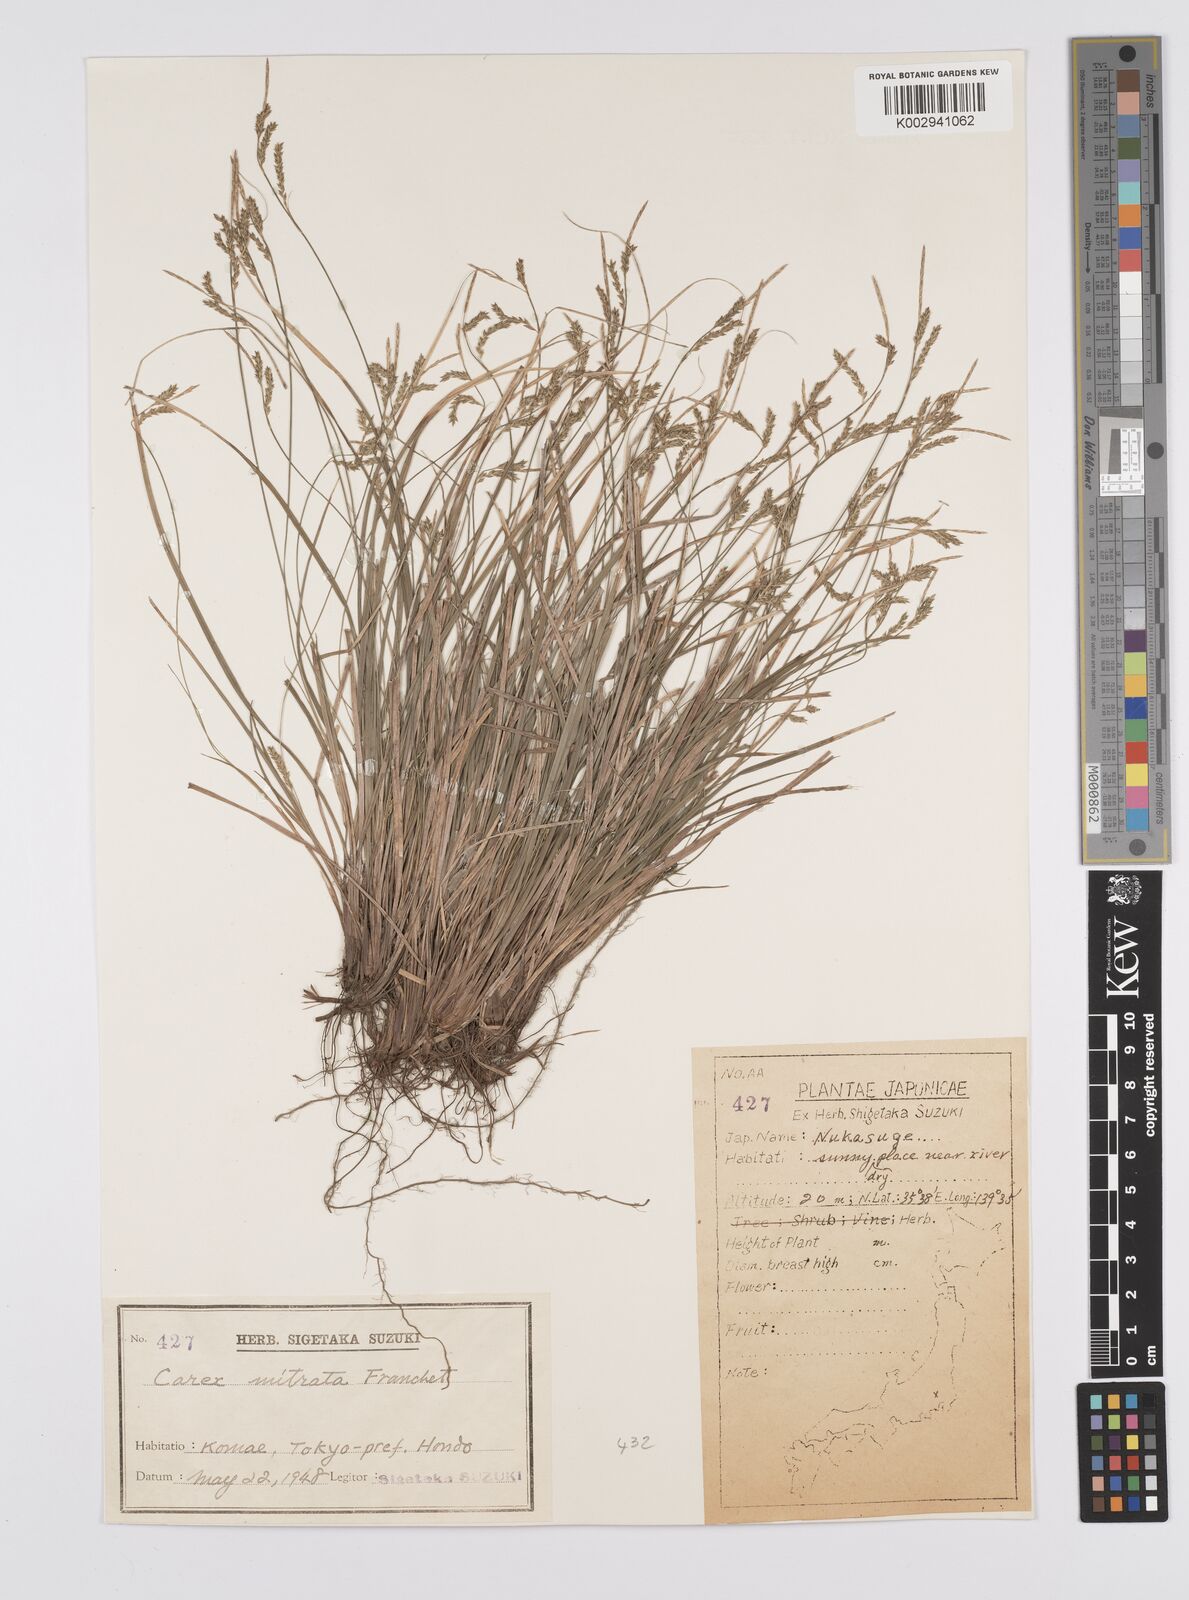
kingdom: Plantae
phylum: Tracheophyta
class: Liliopsida
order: Poales
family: Cyperaceae
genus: Carex
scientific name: Carex mitrata
